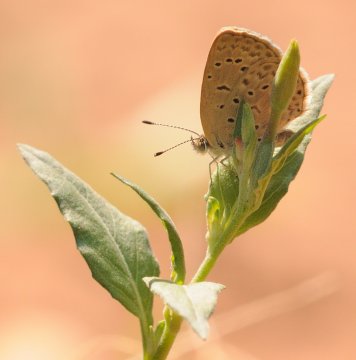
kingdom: Animalia
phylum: Arthropoda
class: Insecta
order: Lepidoptera
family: Lycaenidae
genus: Zizeeria
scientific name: Zizeeria knysna
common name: Dark Grass Blue
